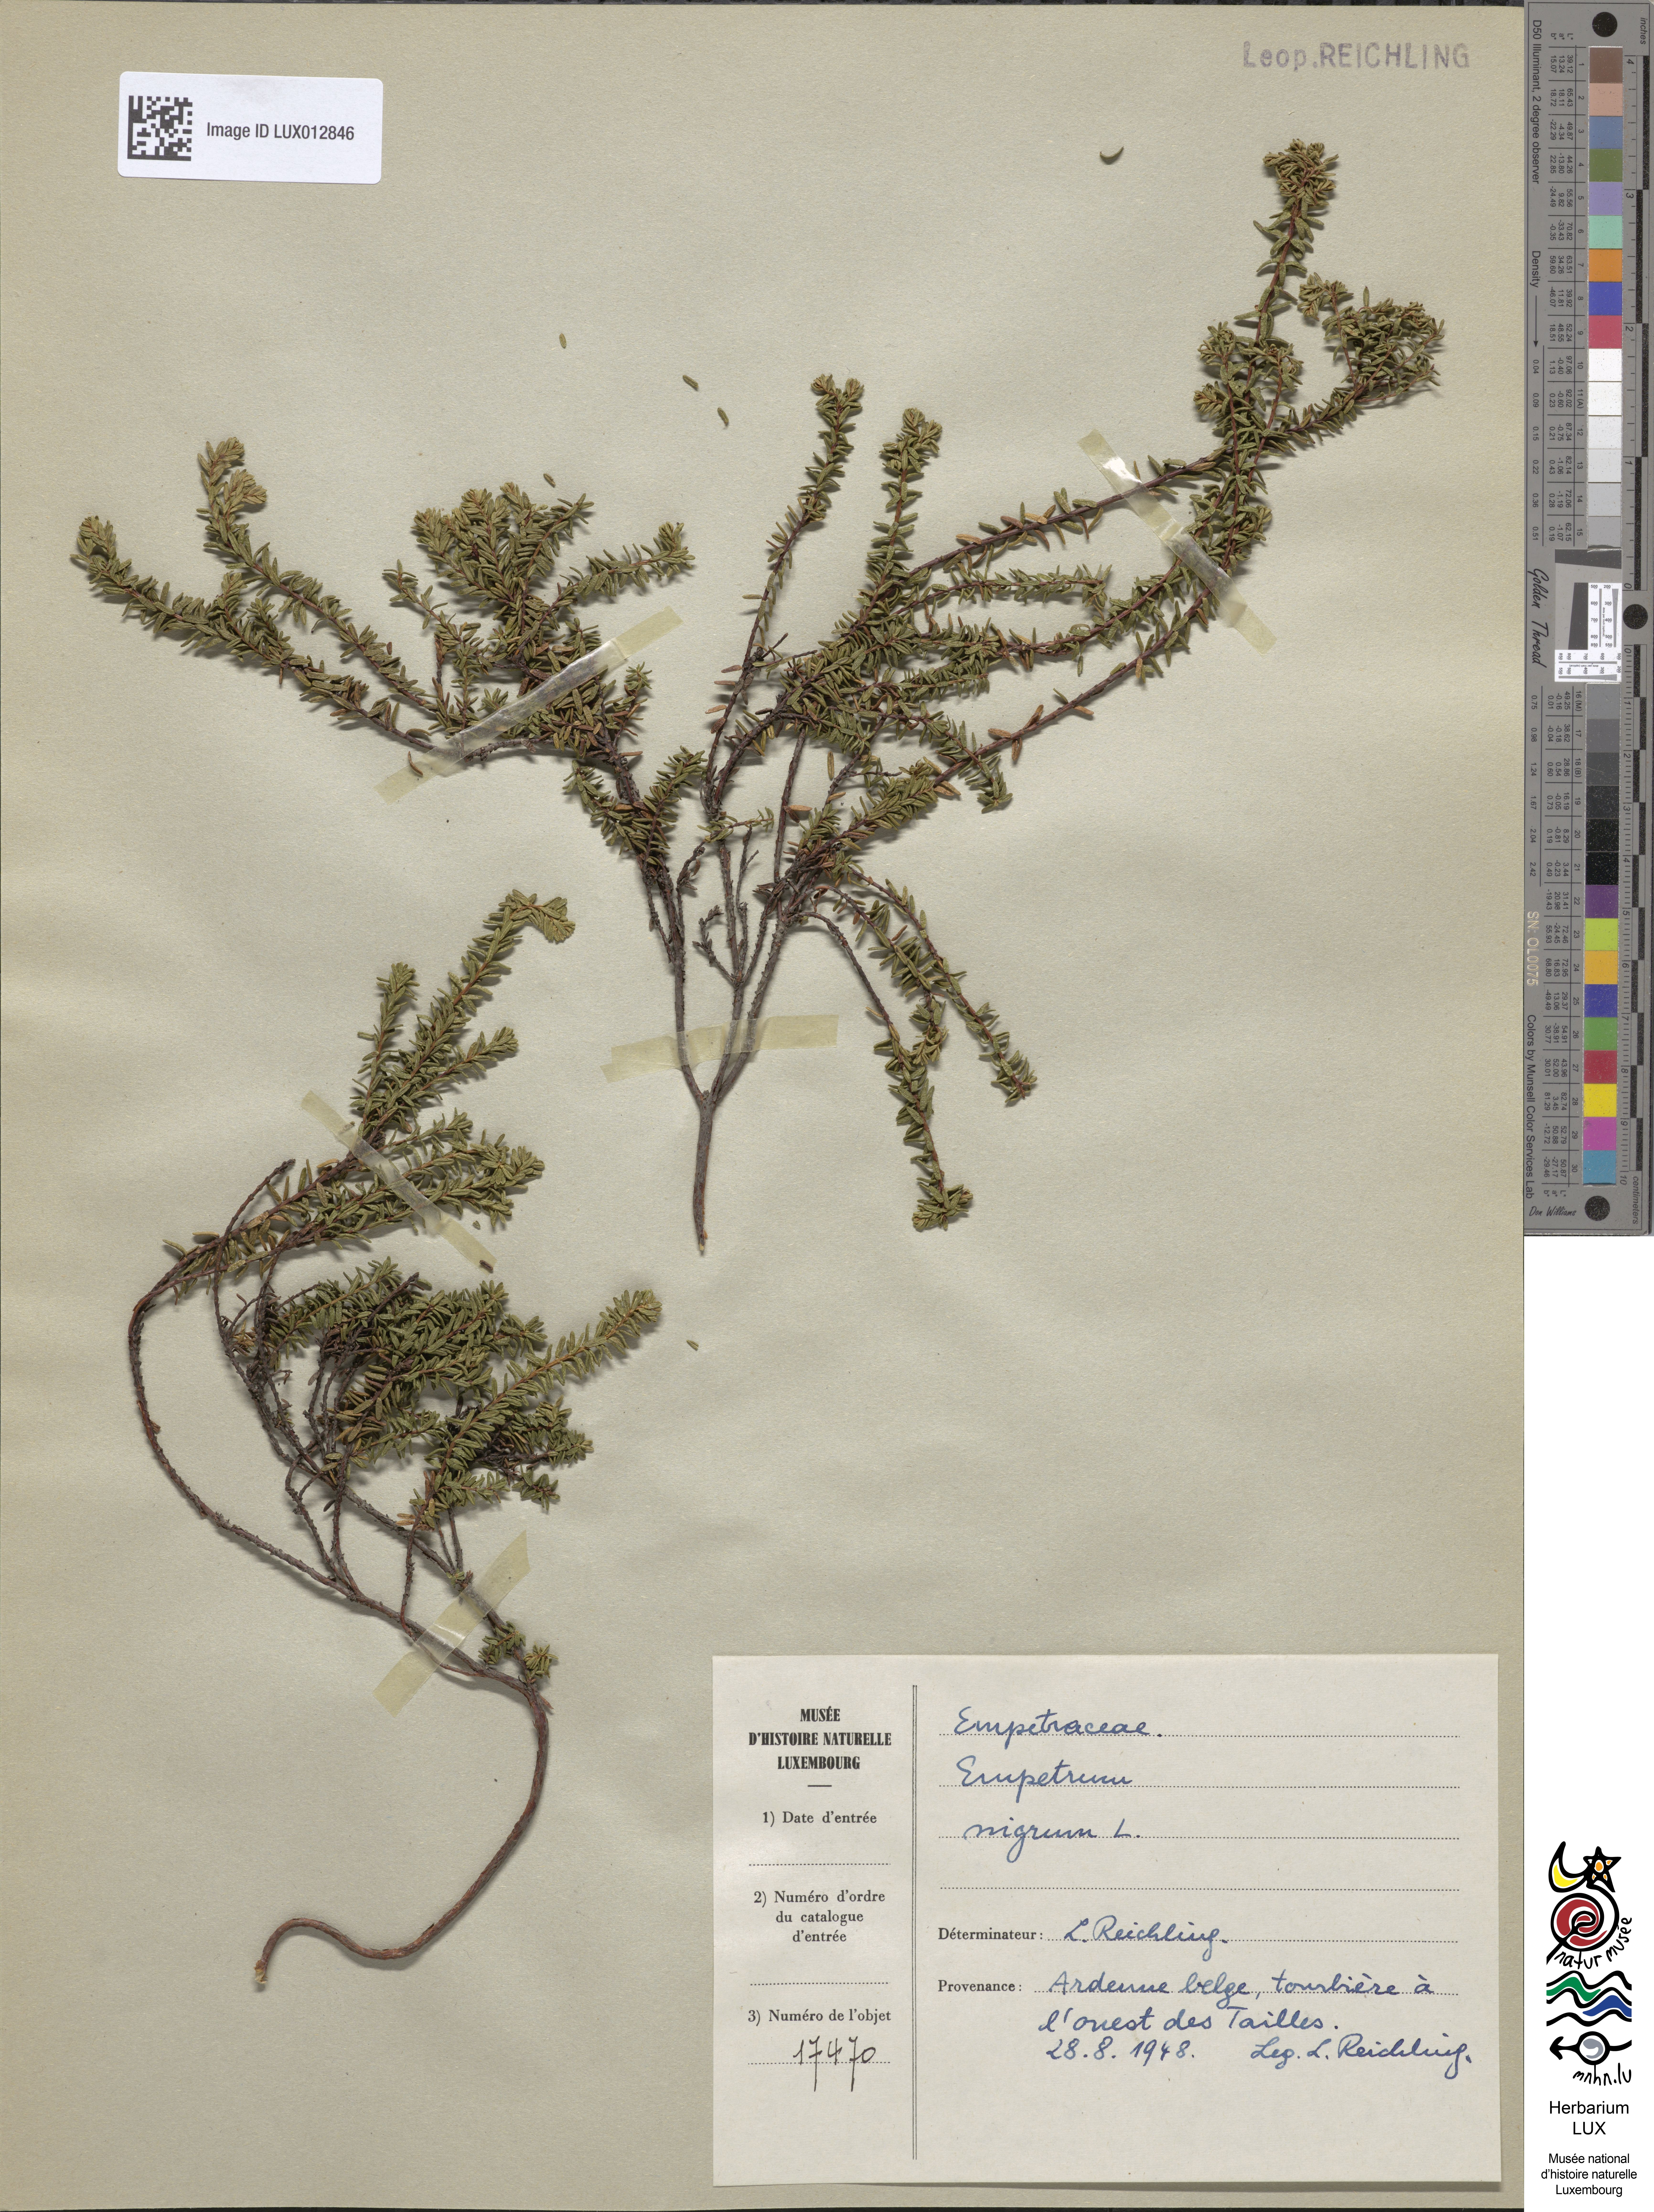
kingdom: Plantae
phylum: Tracheophyta
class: Magnoliopsida
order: Ericales
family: Ericaceae
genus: Empetrum
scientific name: Empetrum nigrum
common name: Black crowberry
